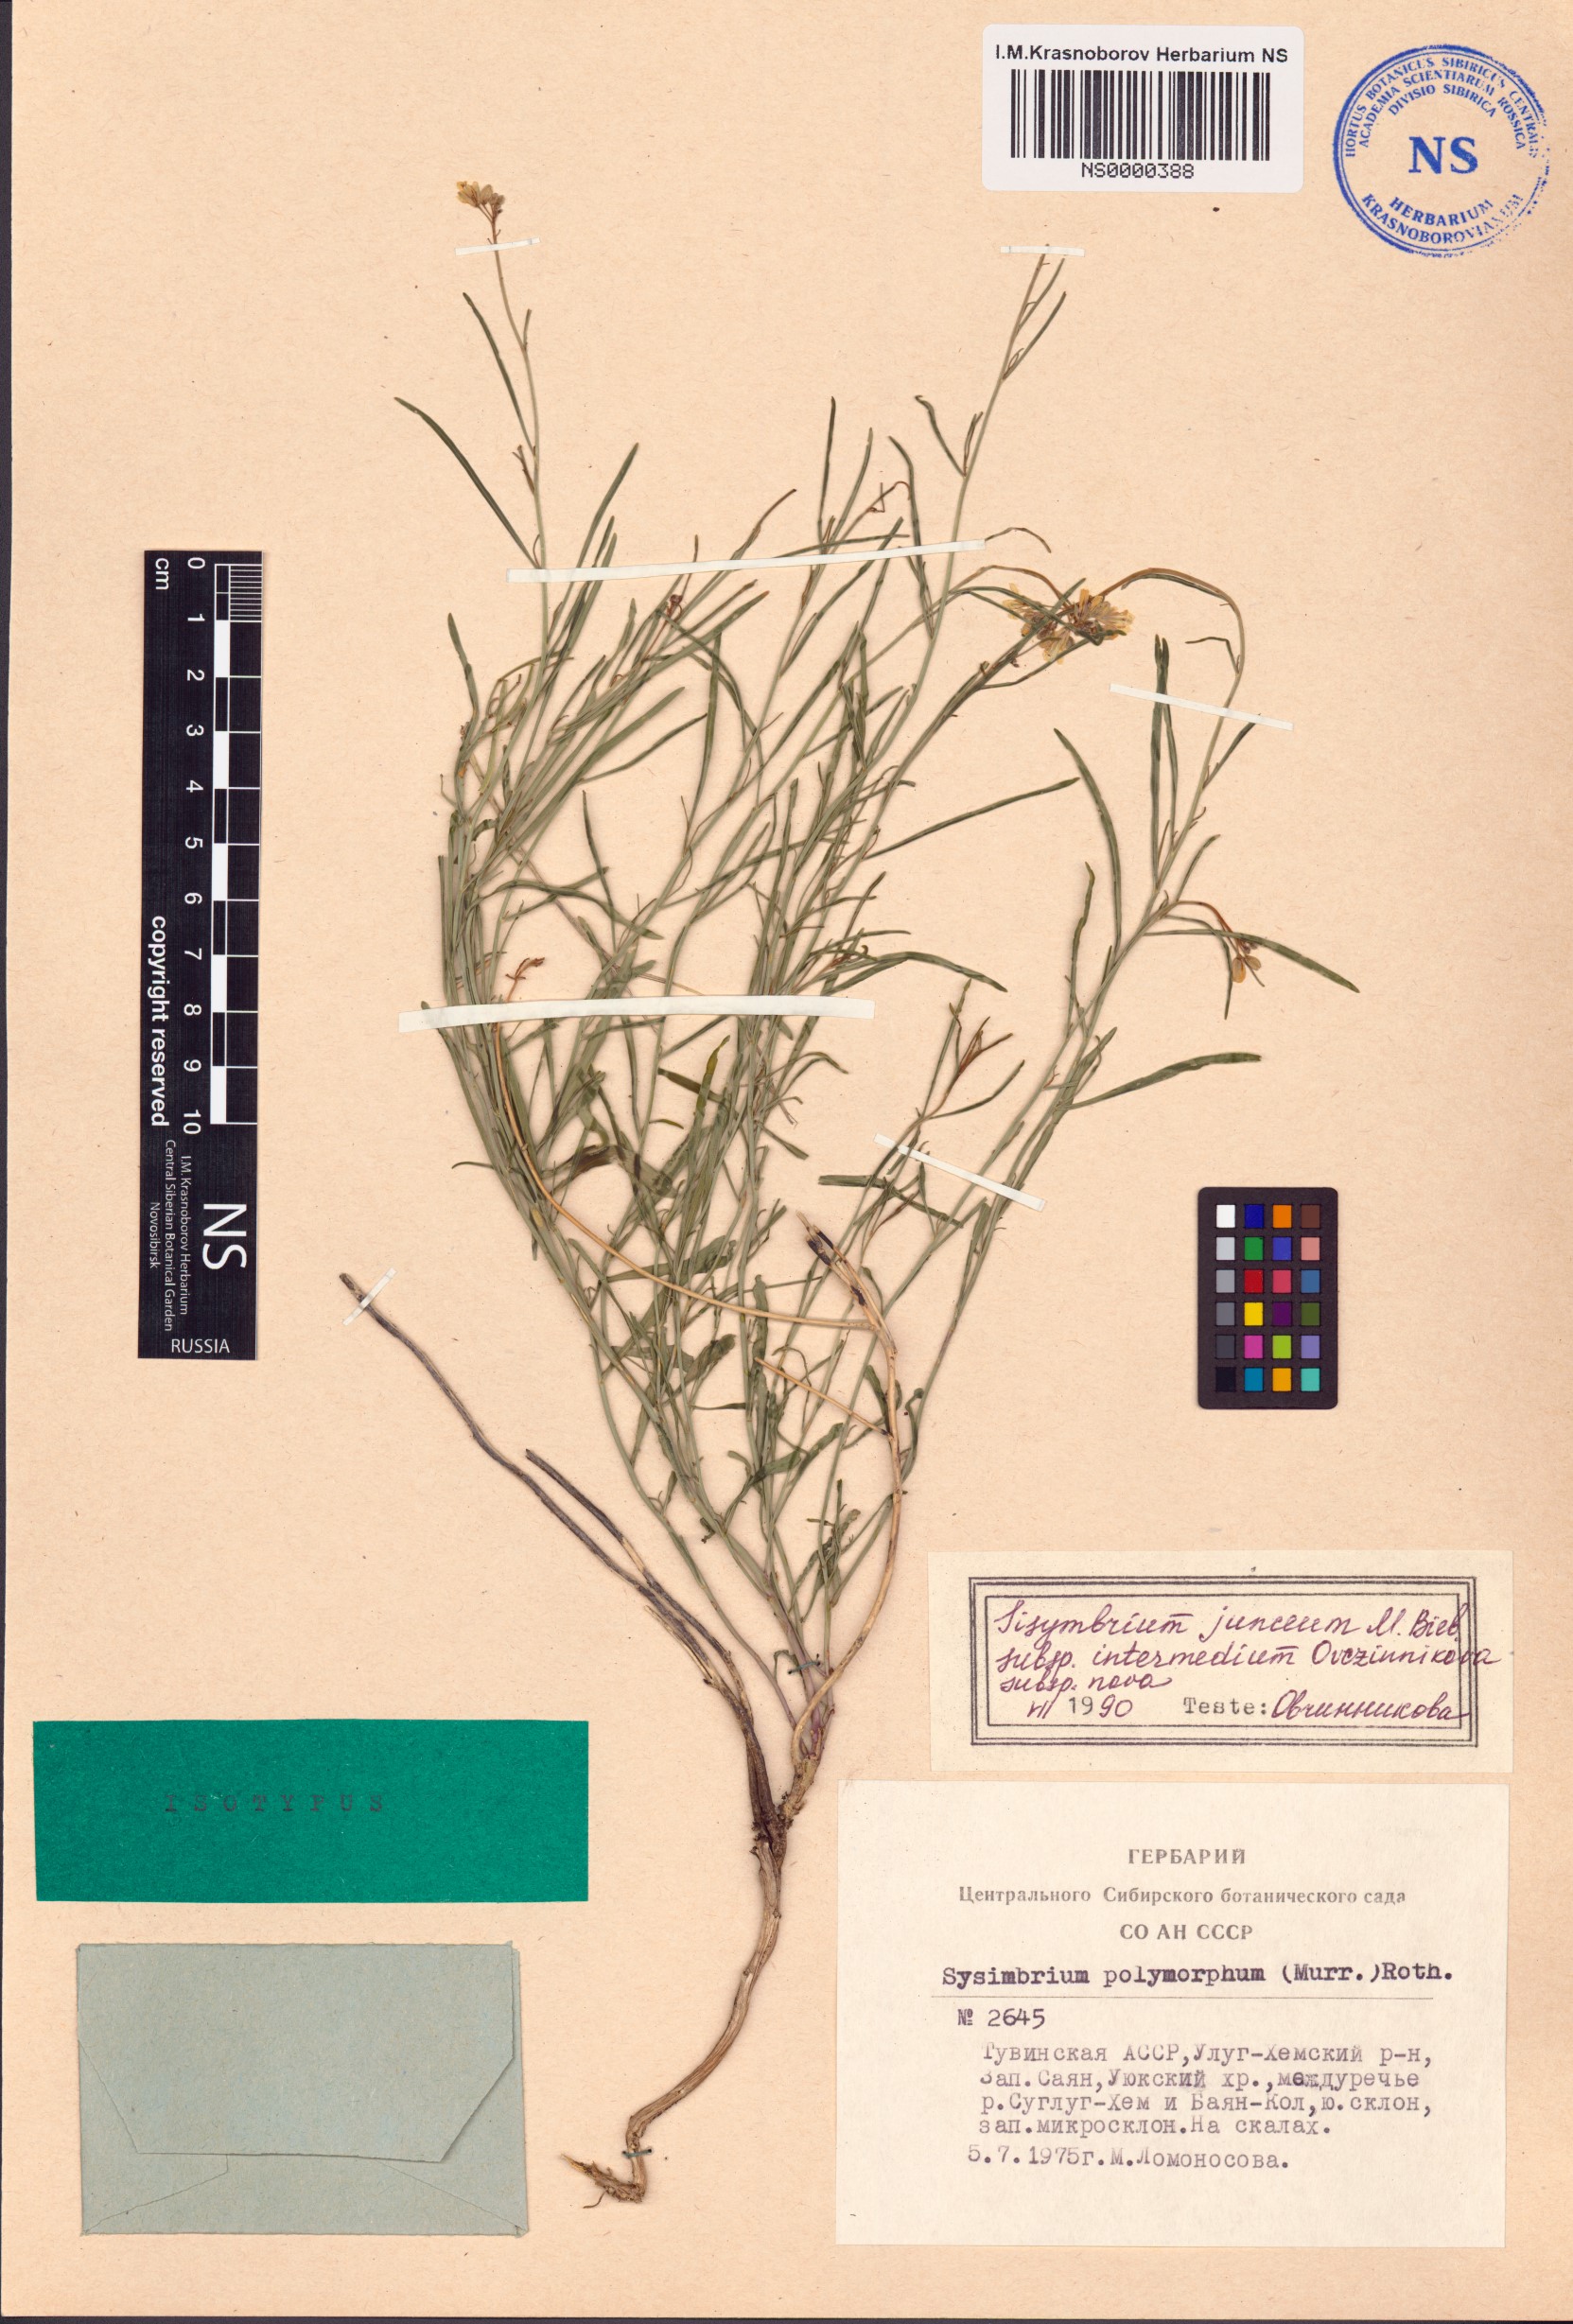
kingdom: Plantae
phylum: Tracheophyta
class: Magnoliopsida
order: Brassicales
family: Brassicaceae
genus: Sisymbrium
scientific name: Sisymbrium polymorphum
